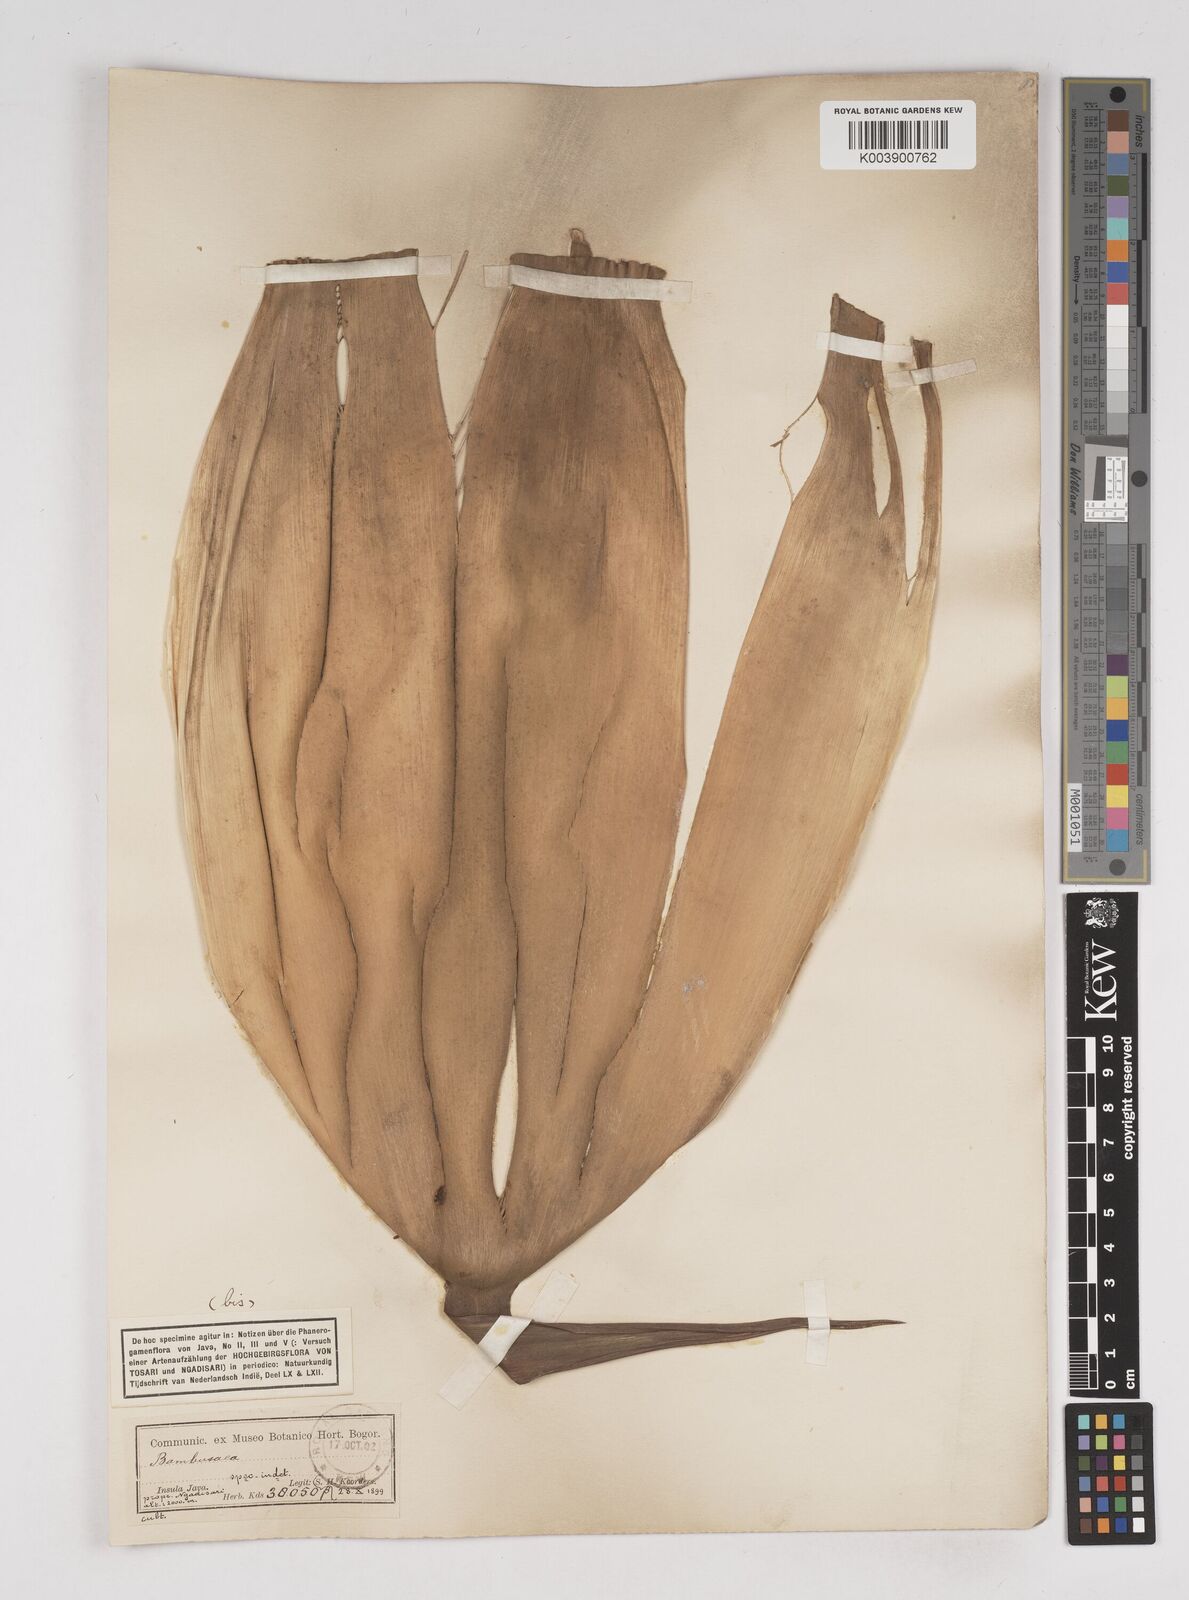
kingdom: Plantae
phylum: Tracheophyta
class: Liliopsida
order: Poales
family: Poaceae
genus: Gigantochloa
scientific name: Gigantochloa
